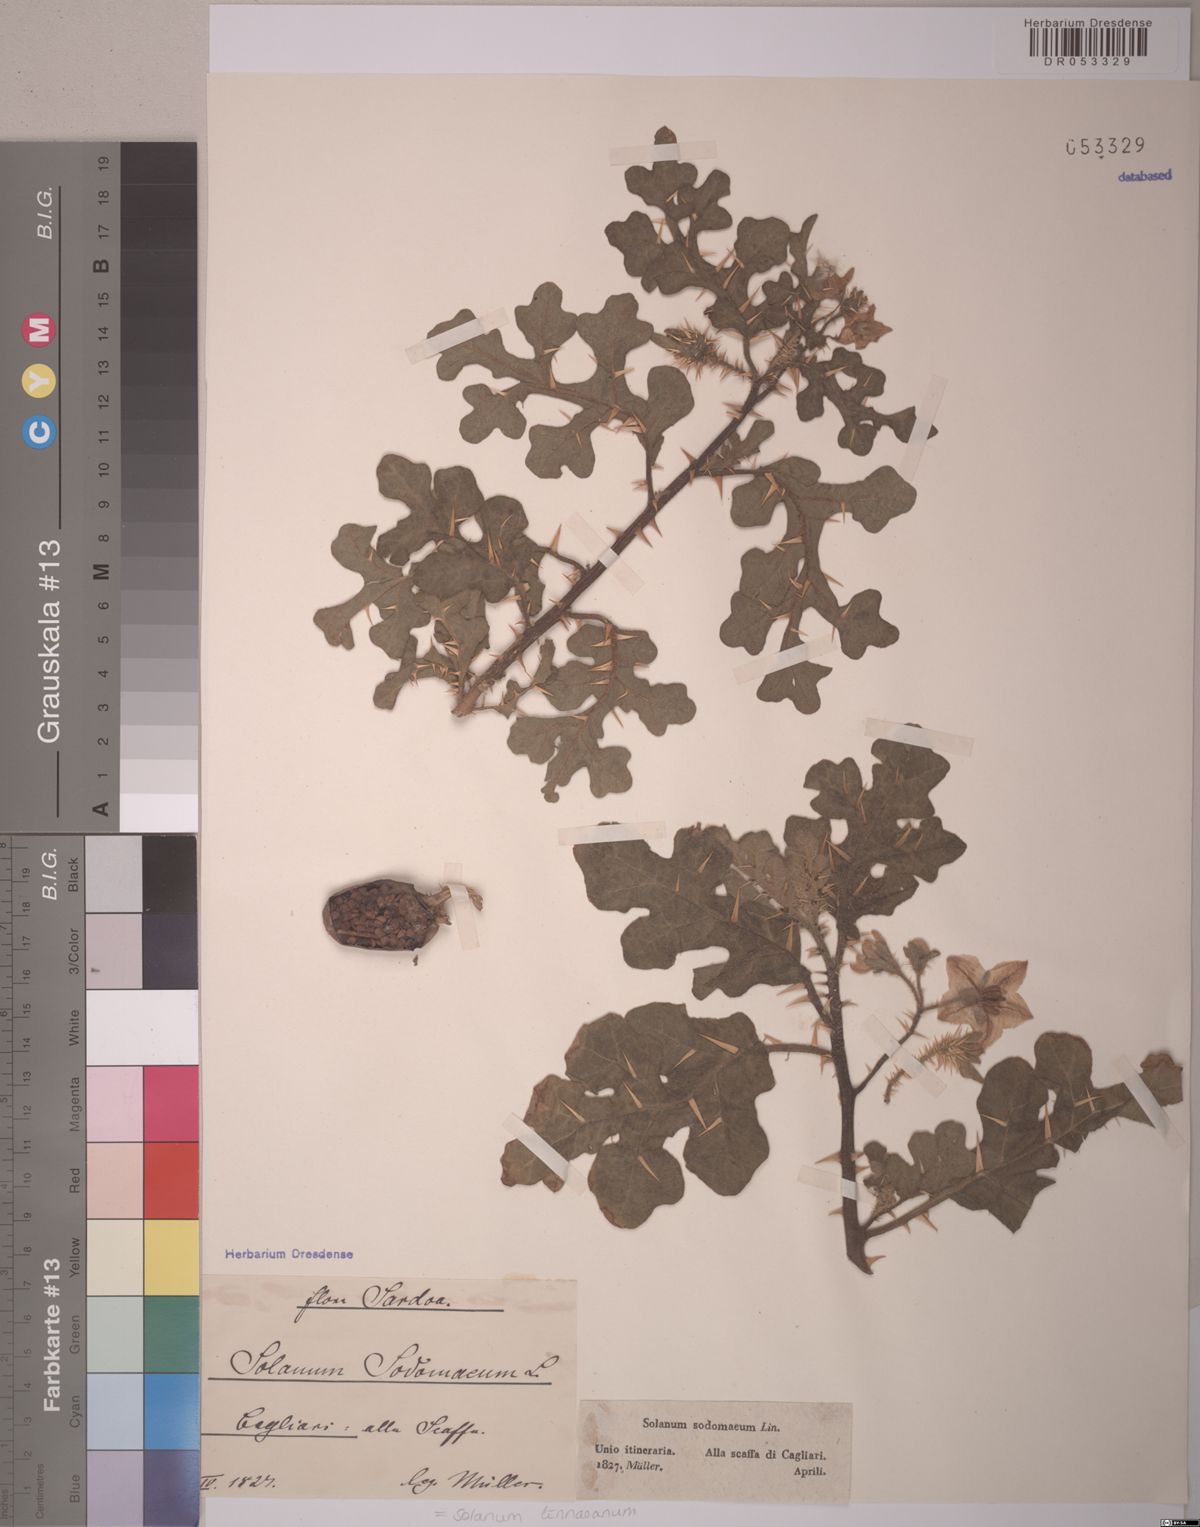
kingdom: Plantae
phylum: Tracheophyta
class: Magnoliopsida
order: Solanales
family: Solanaceae
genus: Solanum
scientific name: Solanum linnaeanum
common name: Nightshade
